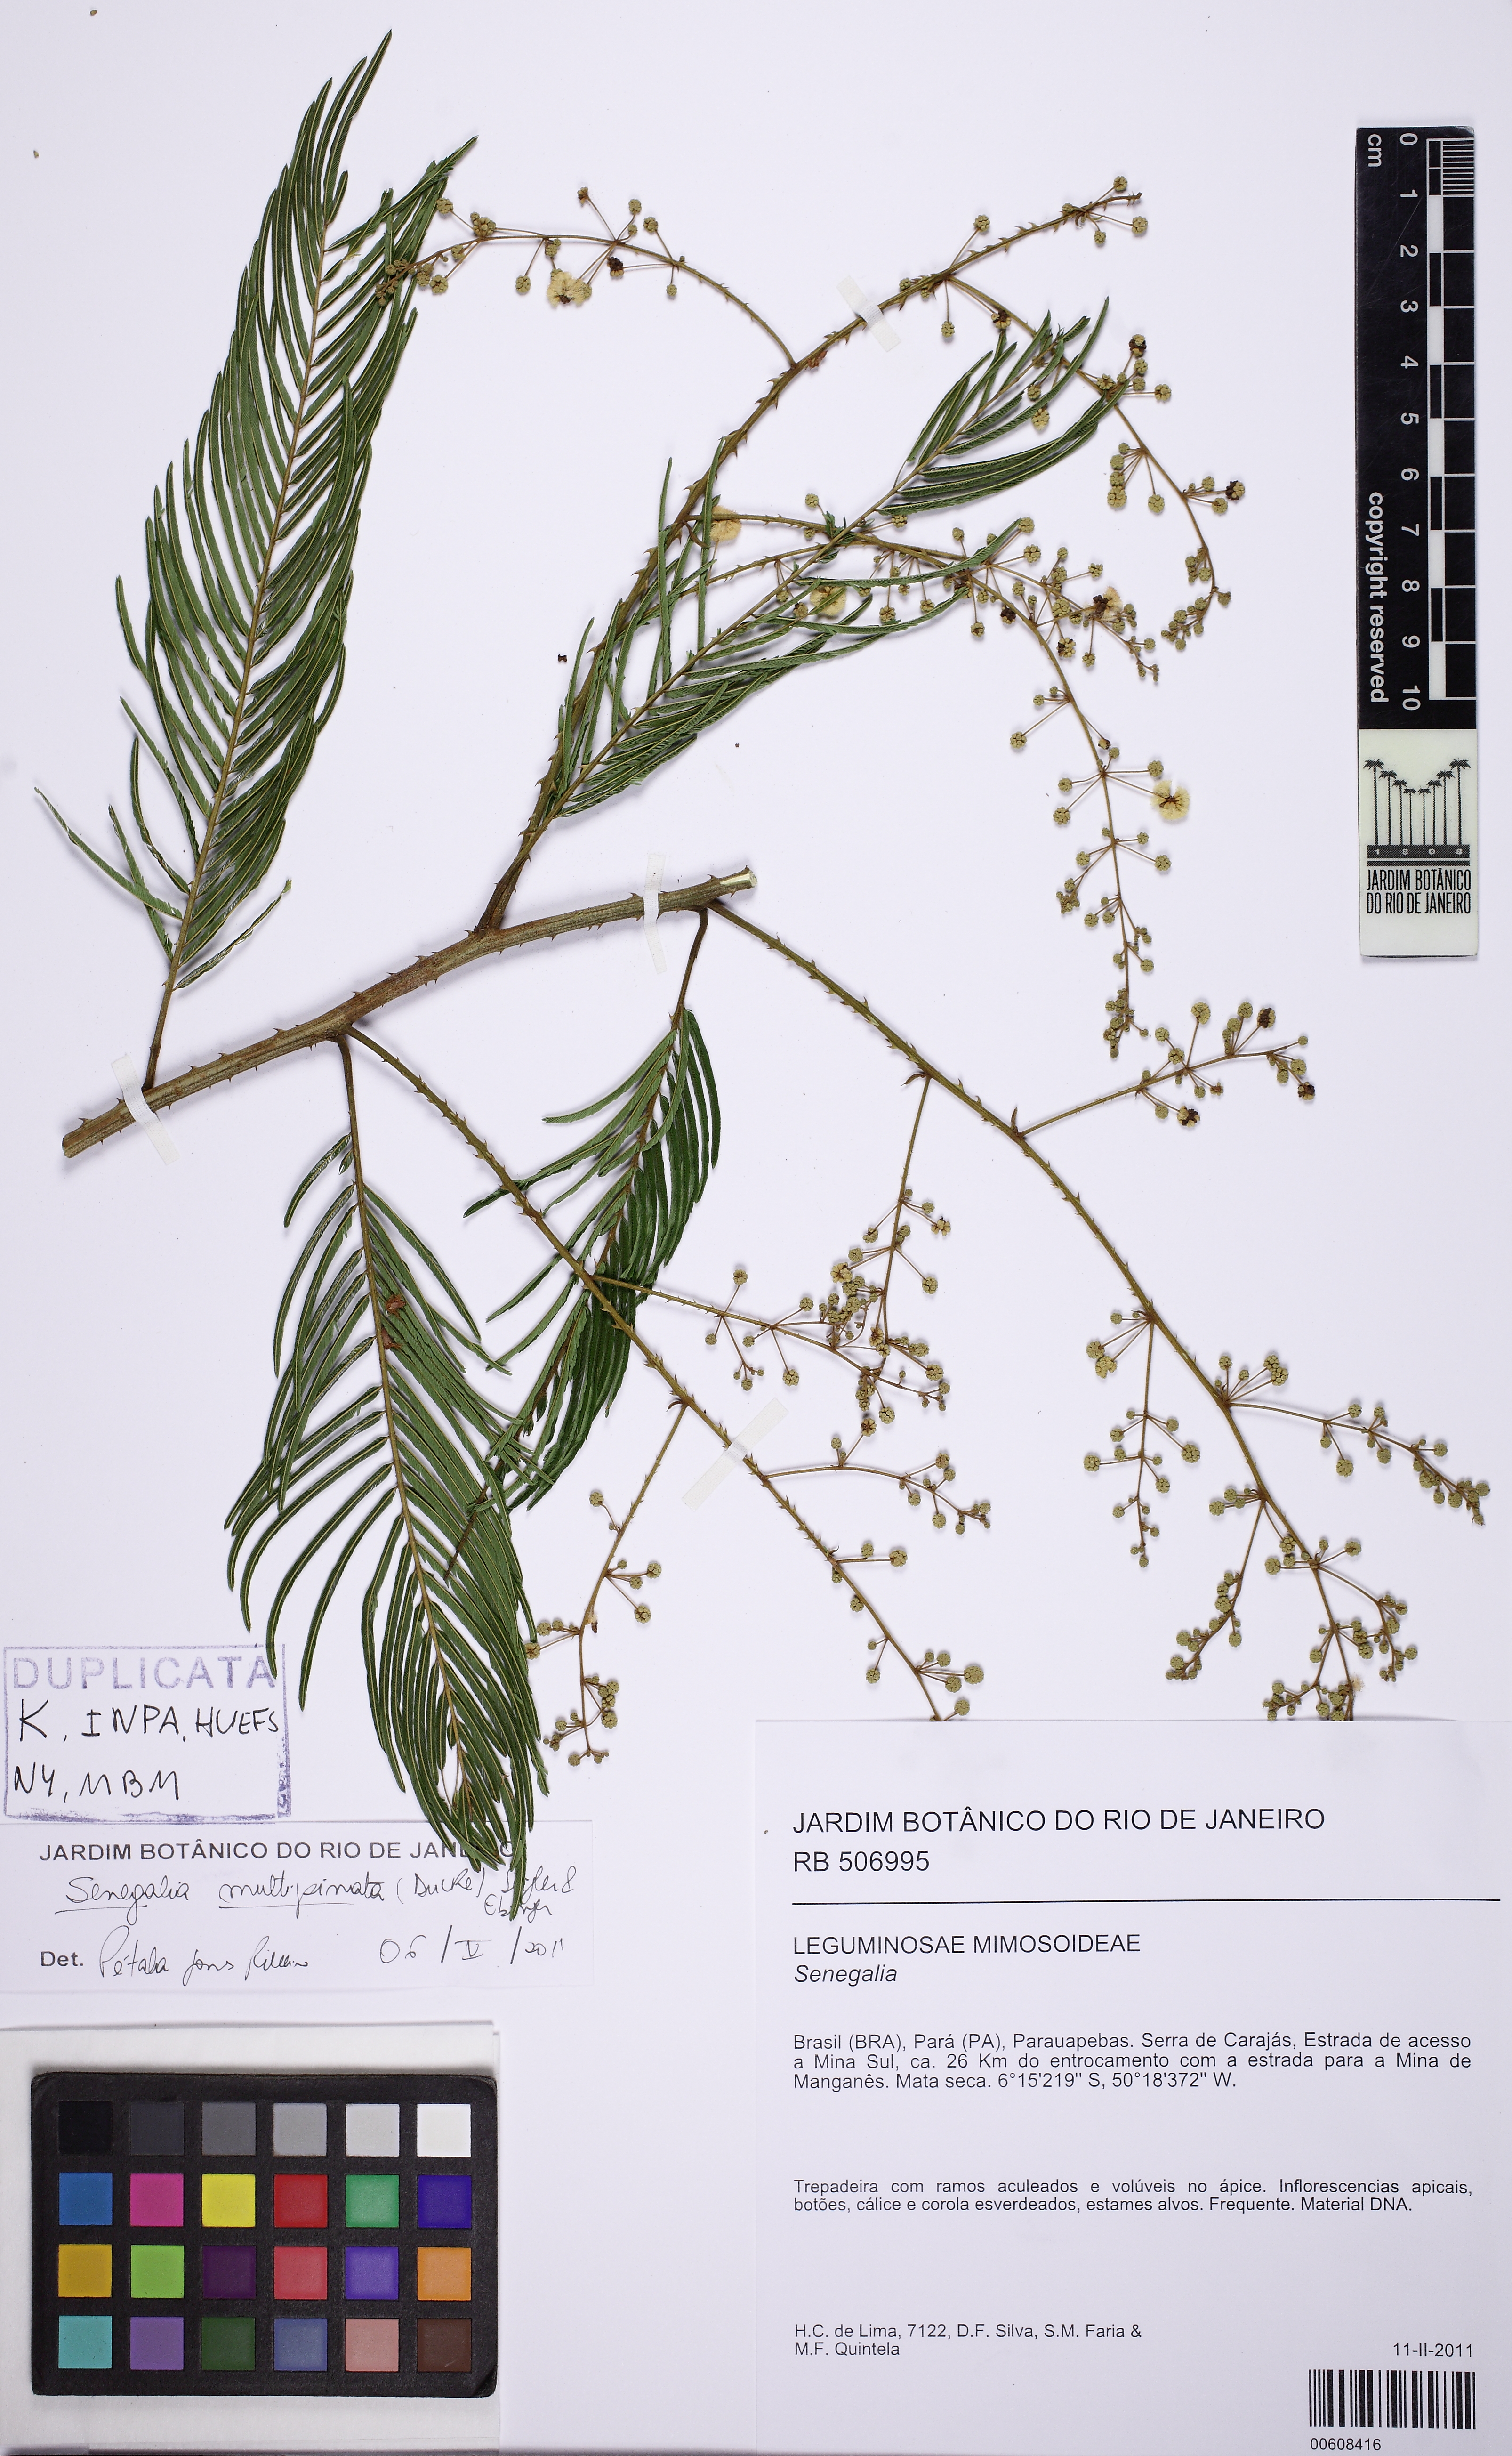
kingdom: Plantae
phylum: Tracheophyta
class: Magnoliopsida
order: Fabales
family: Fabaceae
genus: Senegalia
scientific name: Senegalia paniculata
